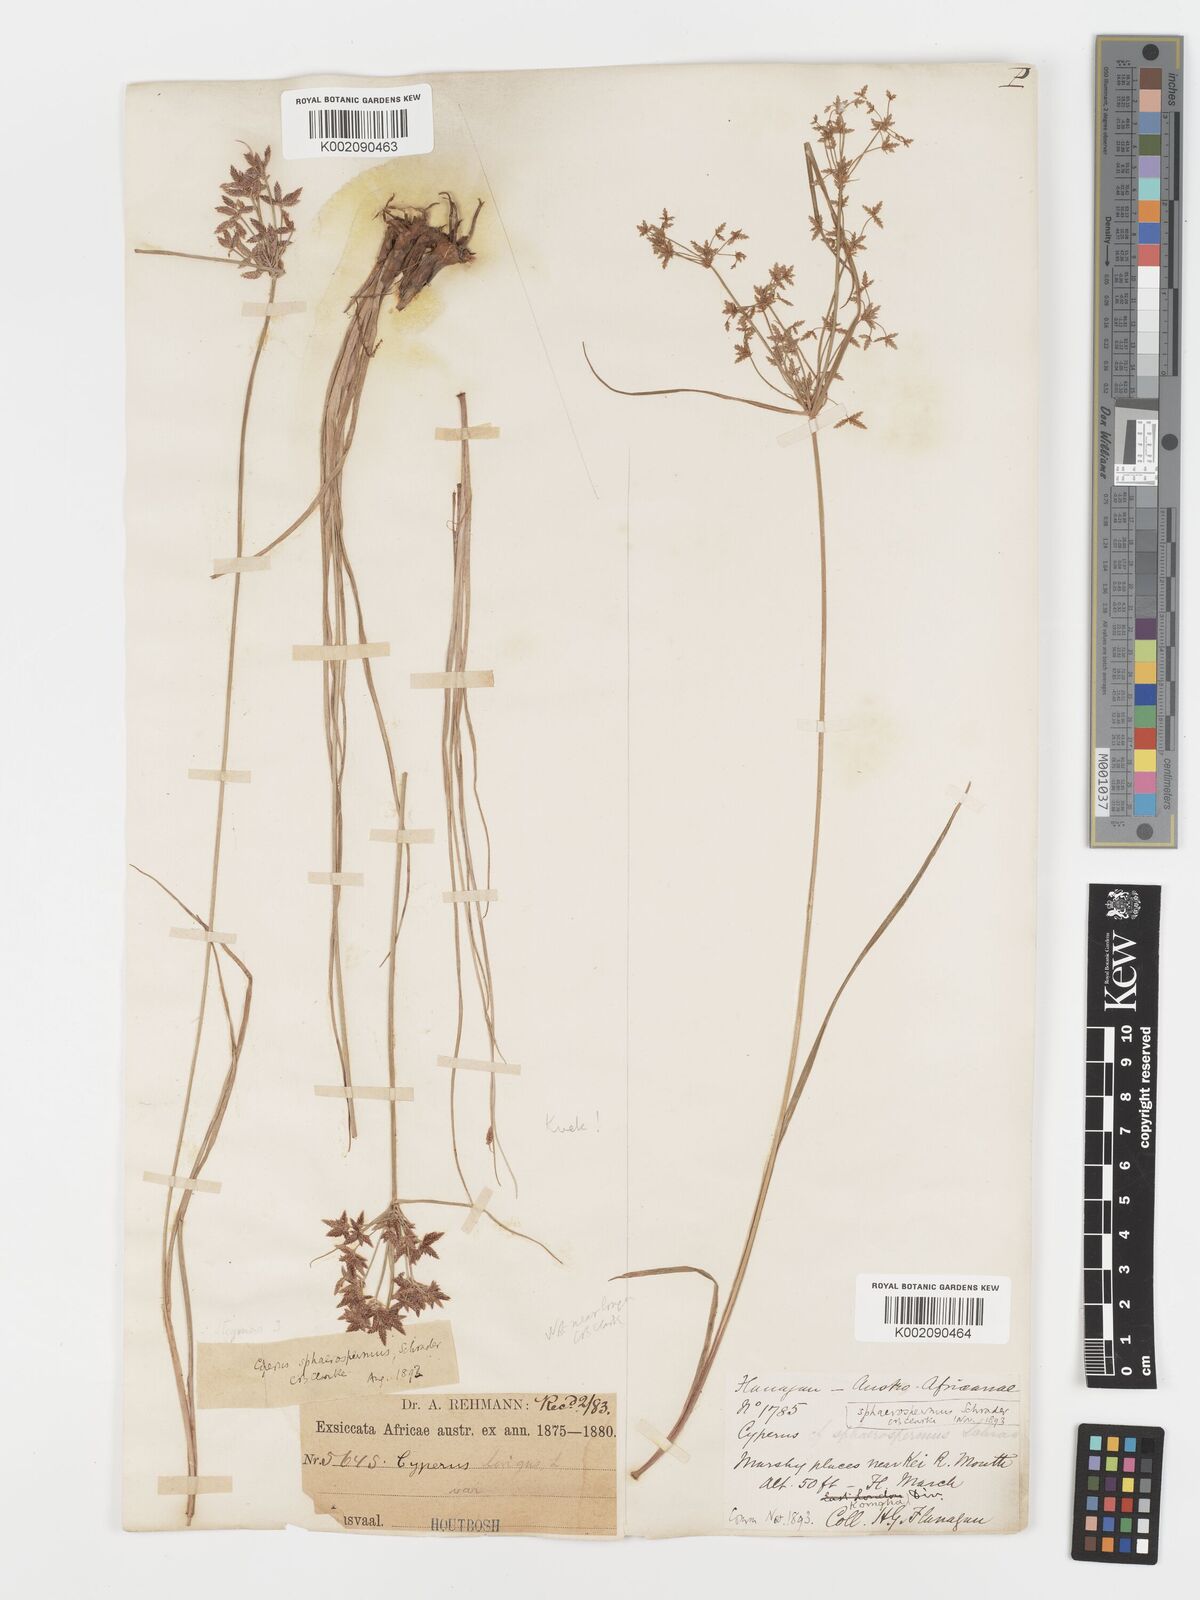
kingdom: Plantae
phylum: Tracheophyta
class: Liliopsida
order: Poales
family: Cyperaceae
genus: Cyperus
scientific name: Cyperus sphaerospermus
